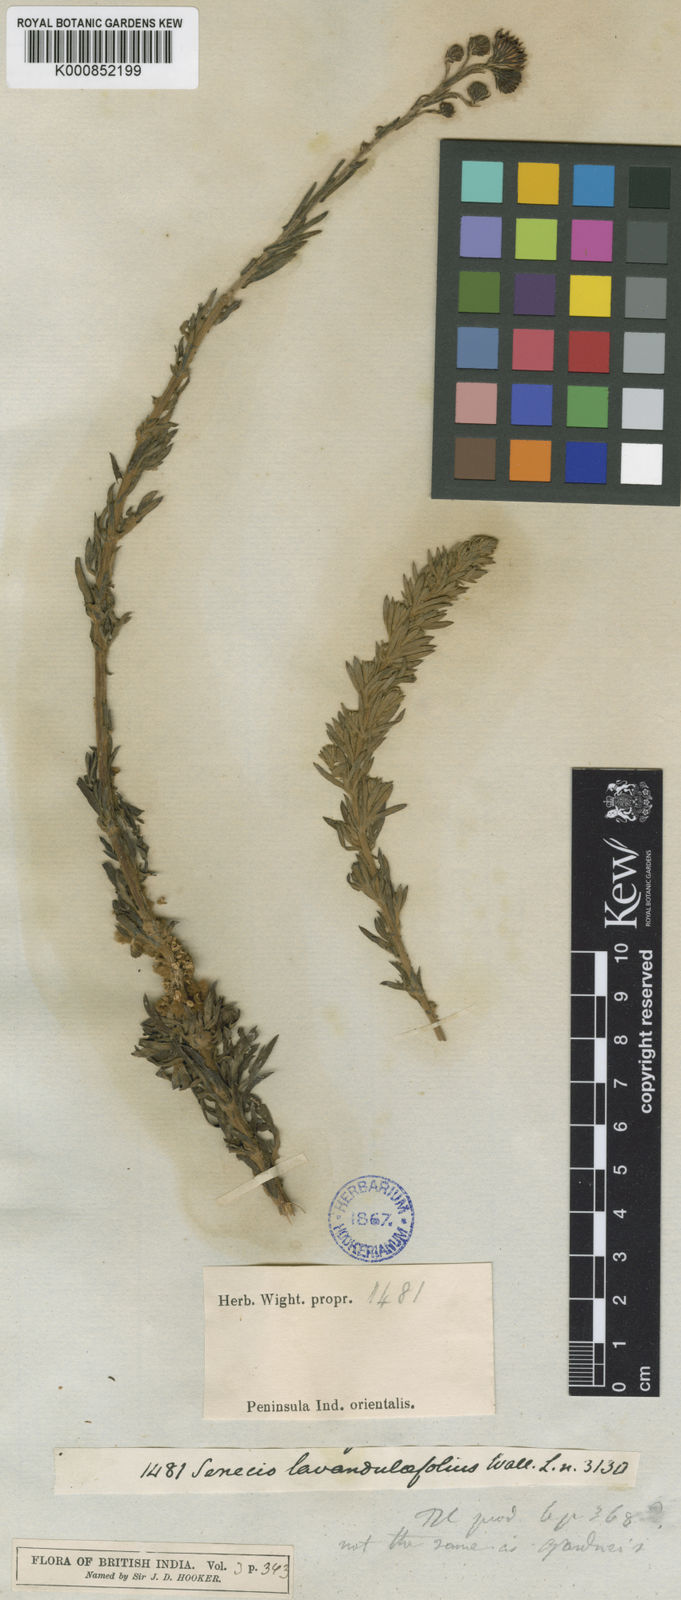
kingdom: Plantae
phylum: Tracheophyta
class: Magnoliopsida
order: Asterales
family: Asteraceae
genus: Senecio
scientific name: Senecio
